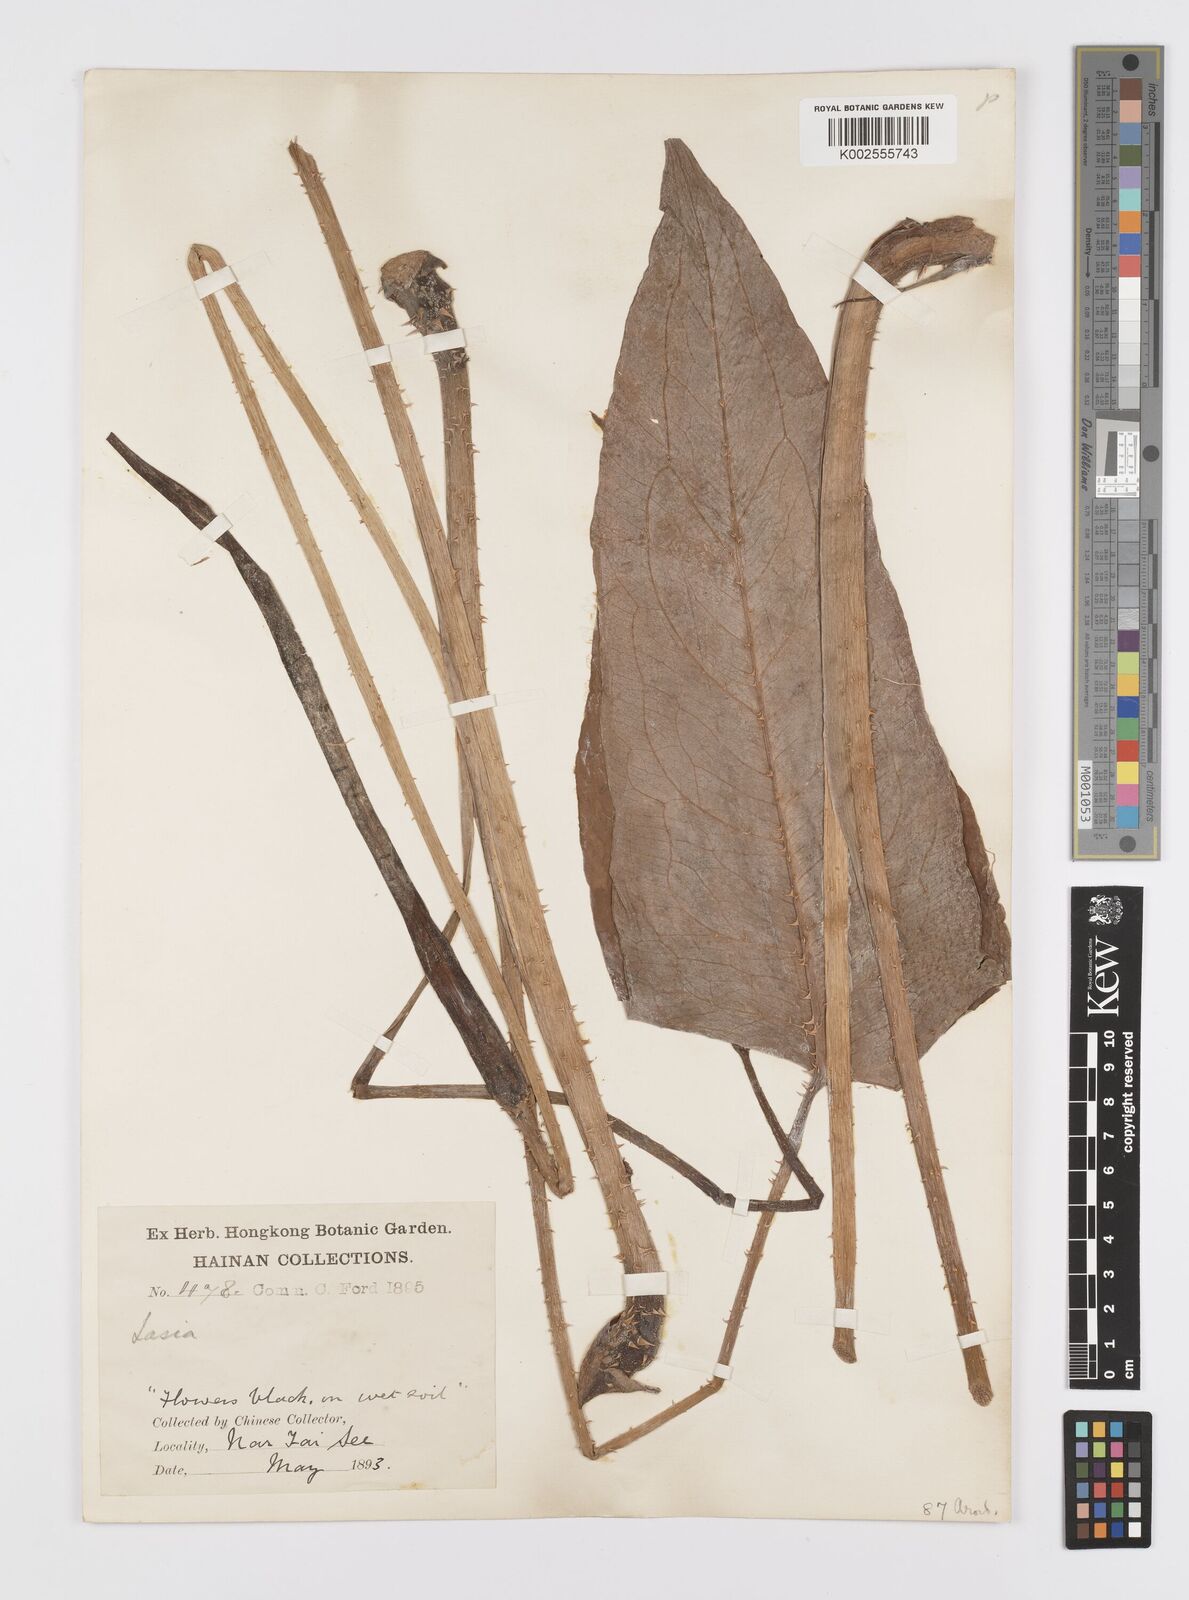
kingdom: Plantae
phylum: Tracheophyta
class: Liliopsida
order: Alismatales
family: Araceae
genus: Lasia
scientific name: Lasia spinosa
